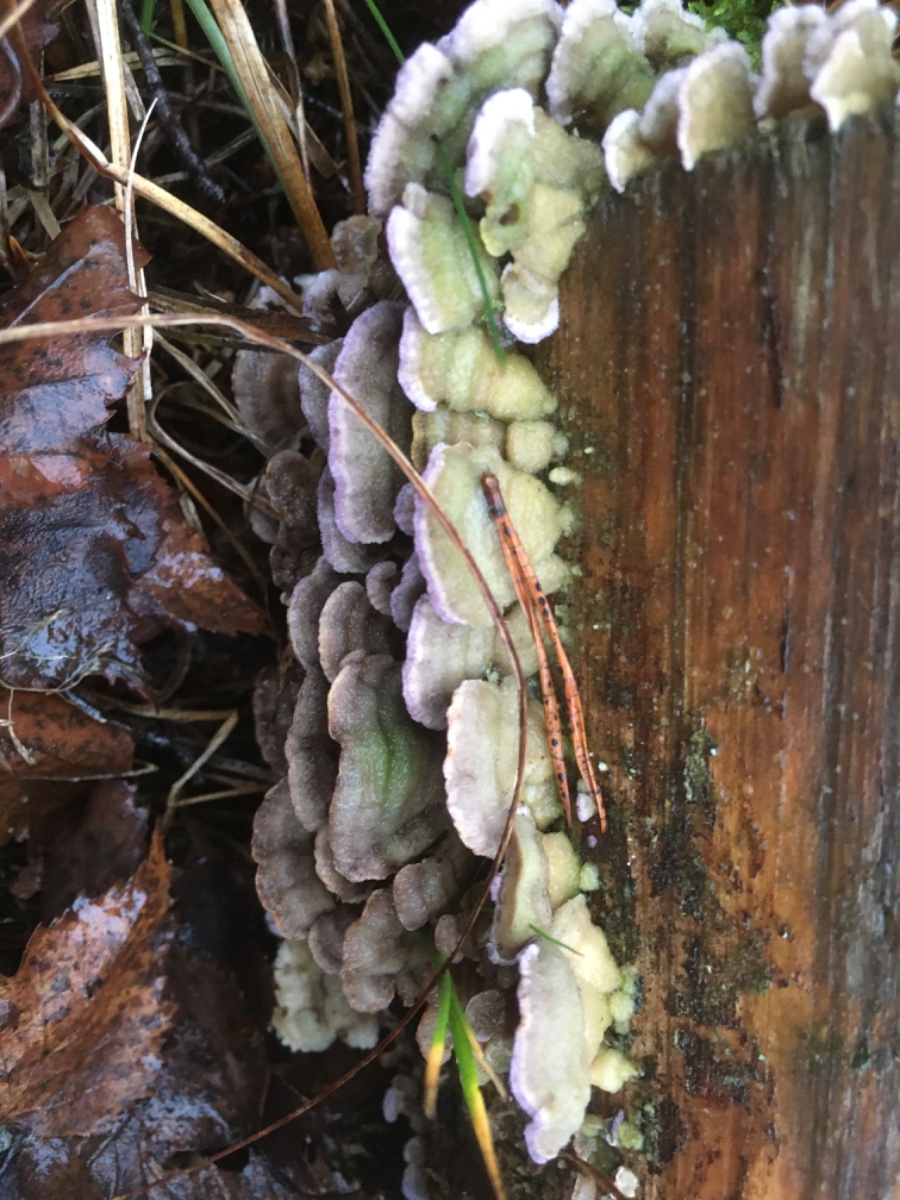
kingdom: Fungi
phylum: Basidiomycota
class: Agaricomycetes
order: Hymenochaetales
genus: Trichaptum
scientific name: Trichaptum fuscoviolaceum
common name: tandet violporesvamp
